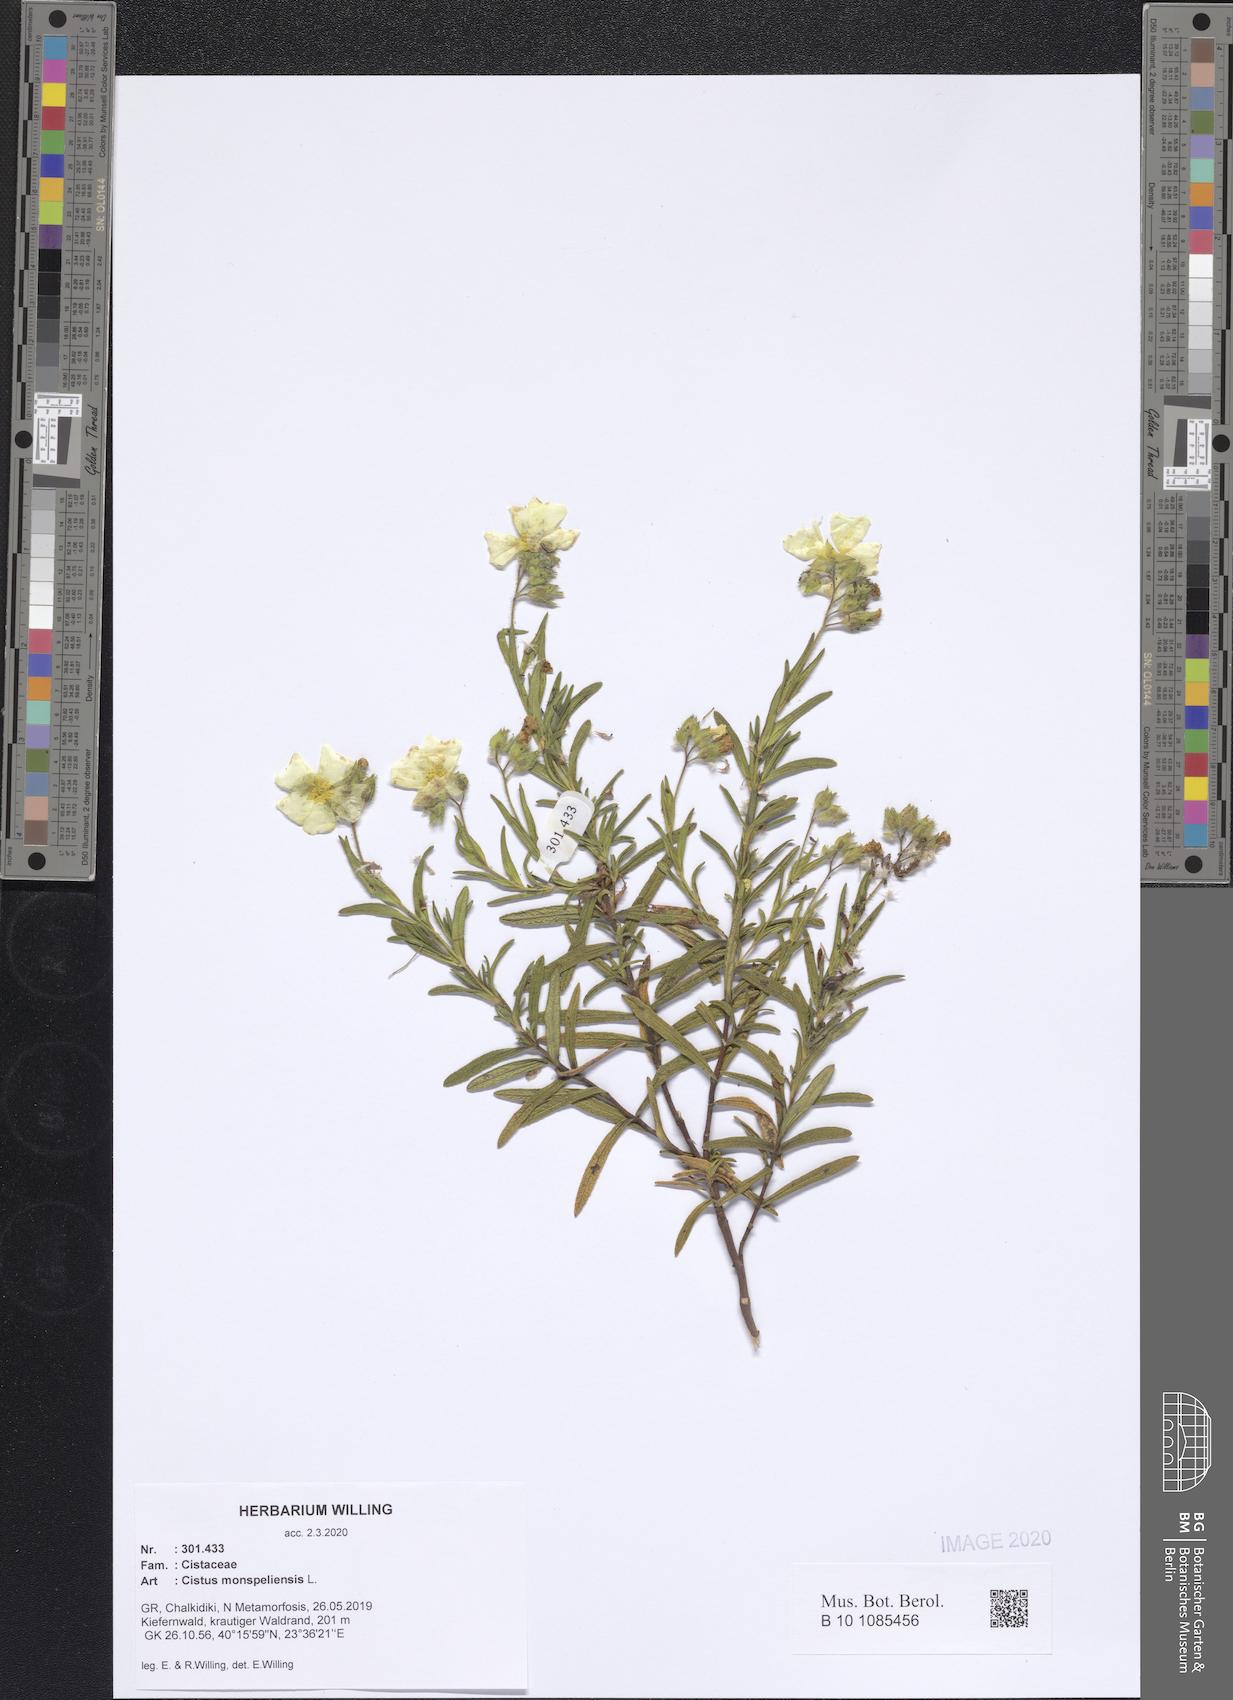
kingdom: Plantae
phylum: Tracheophyta
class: Magnoliopsida
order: Malvales
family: Cistaceae
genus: Cistus
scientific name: Cistus monspeliensis
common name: Montpelier cistus
